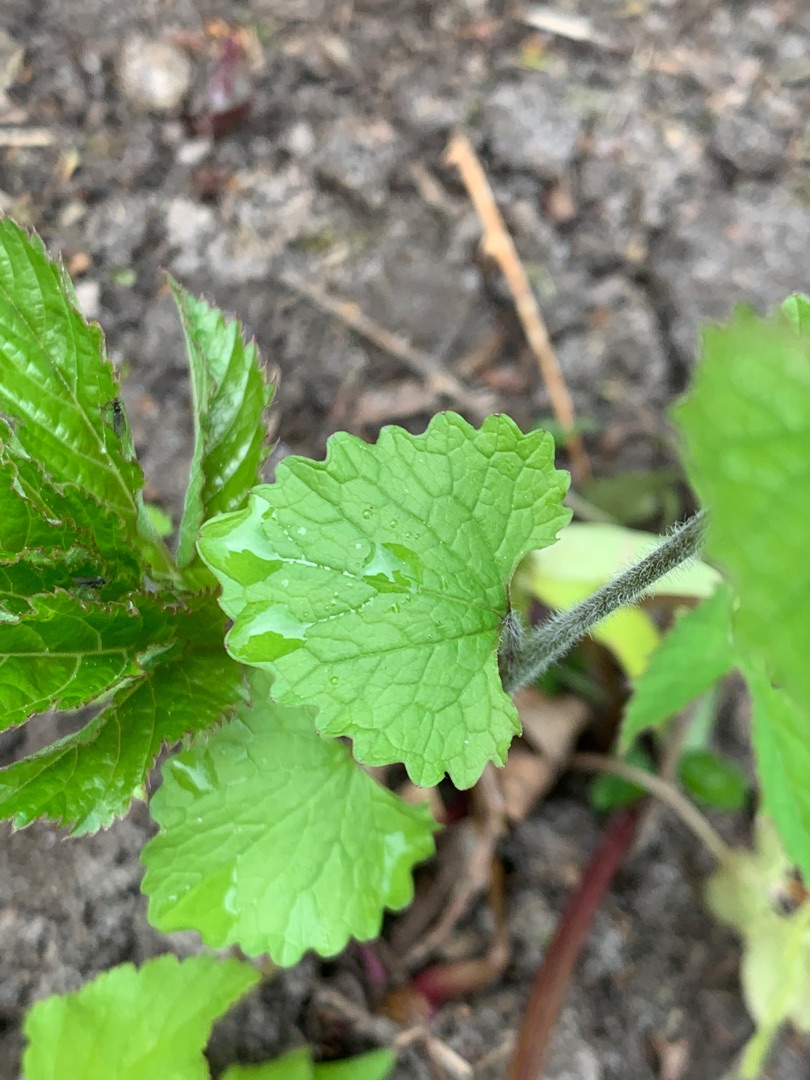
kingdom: Plantae
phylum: Tracheophyta
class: Magnoliopsida
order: Brassicales
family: Brassicaceae
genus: Alliaria
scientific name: Alliaria petiolata
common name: Løgkarse
